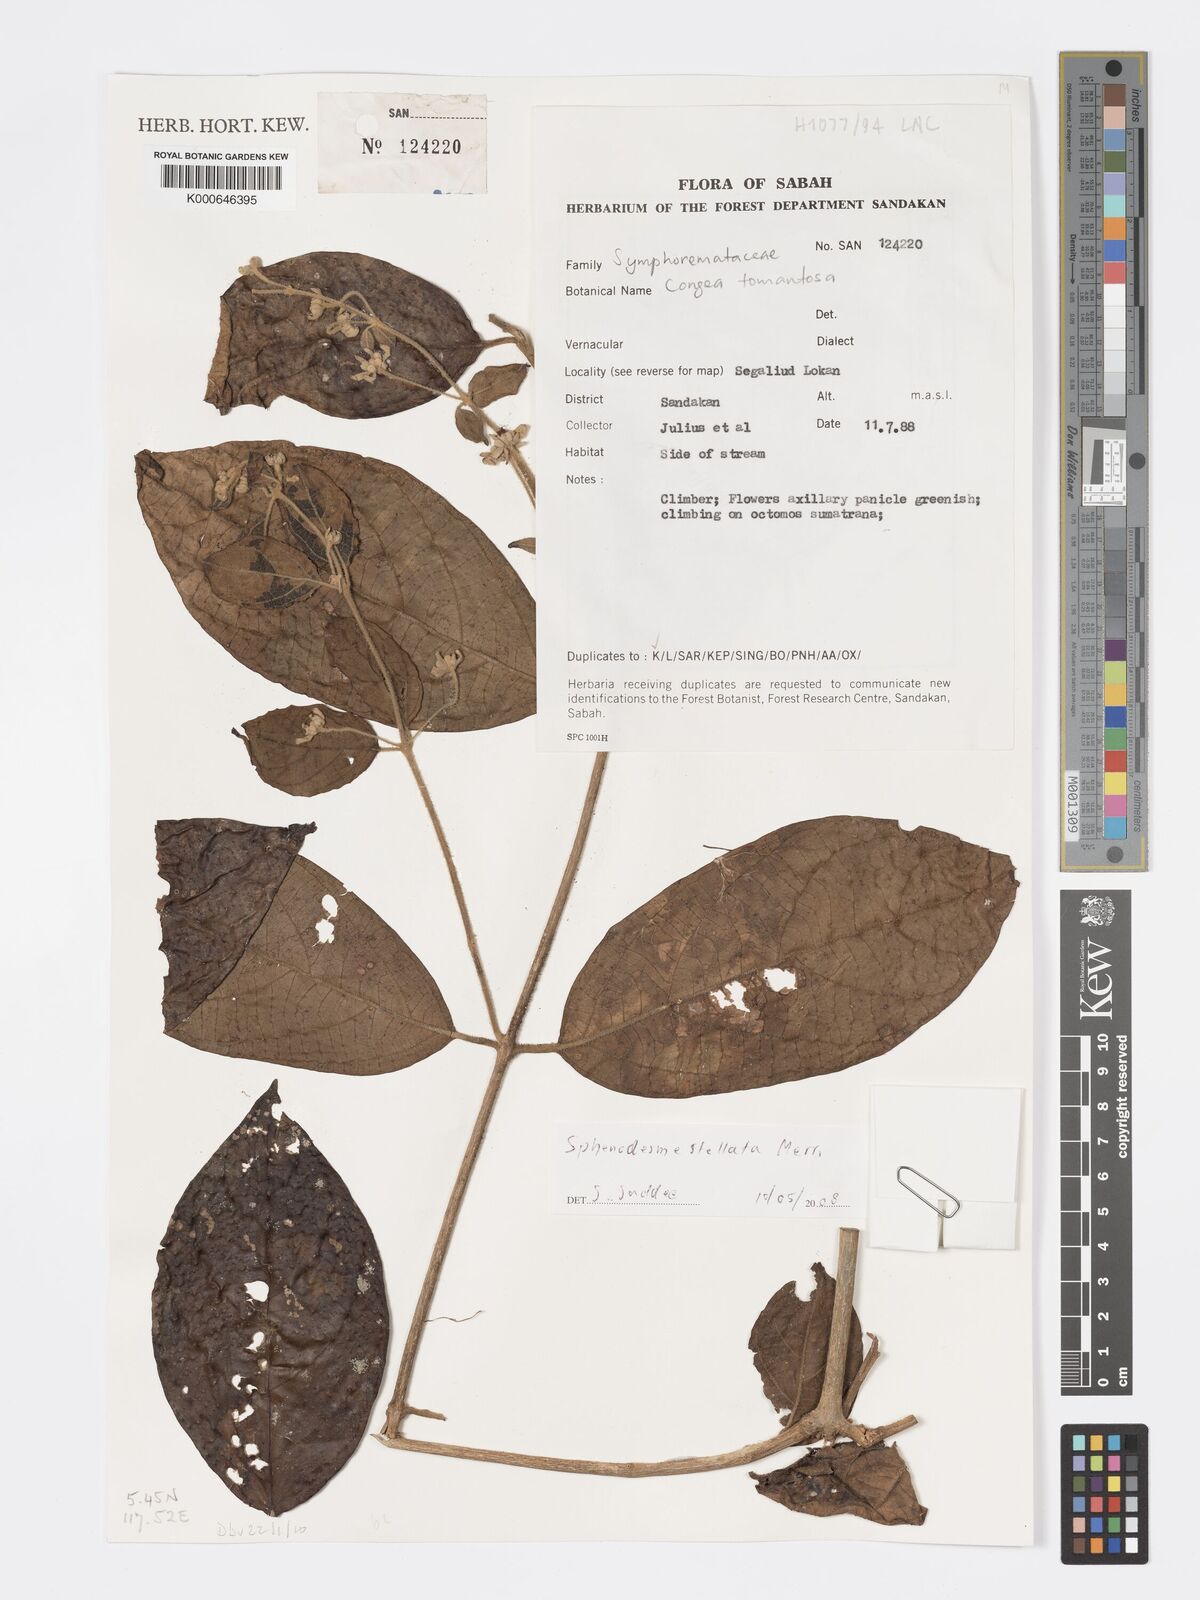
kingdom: Plantae
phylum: Tracheophyta
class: Magnoliopsida
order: Lamiales
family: Lamiaceae
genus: Sphenodesme
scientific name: Sphenodesme stellata
